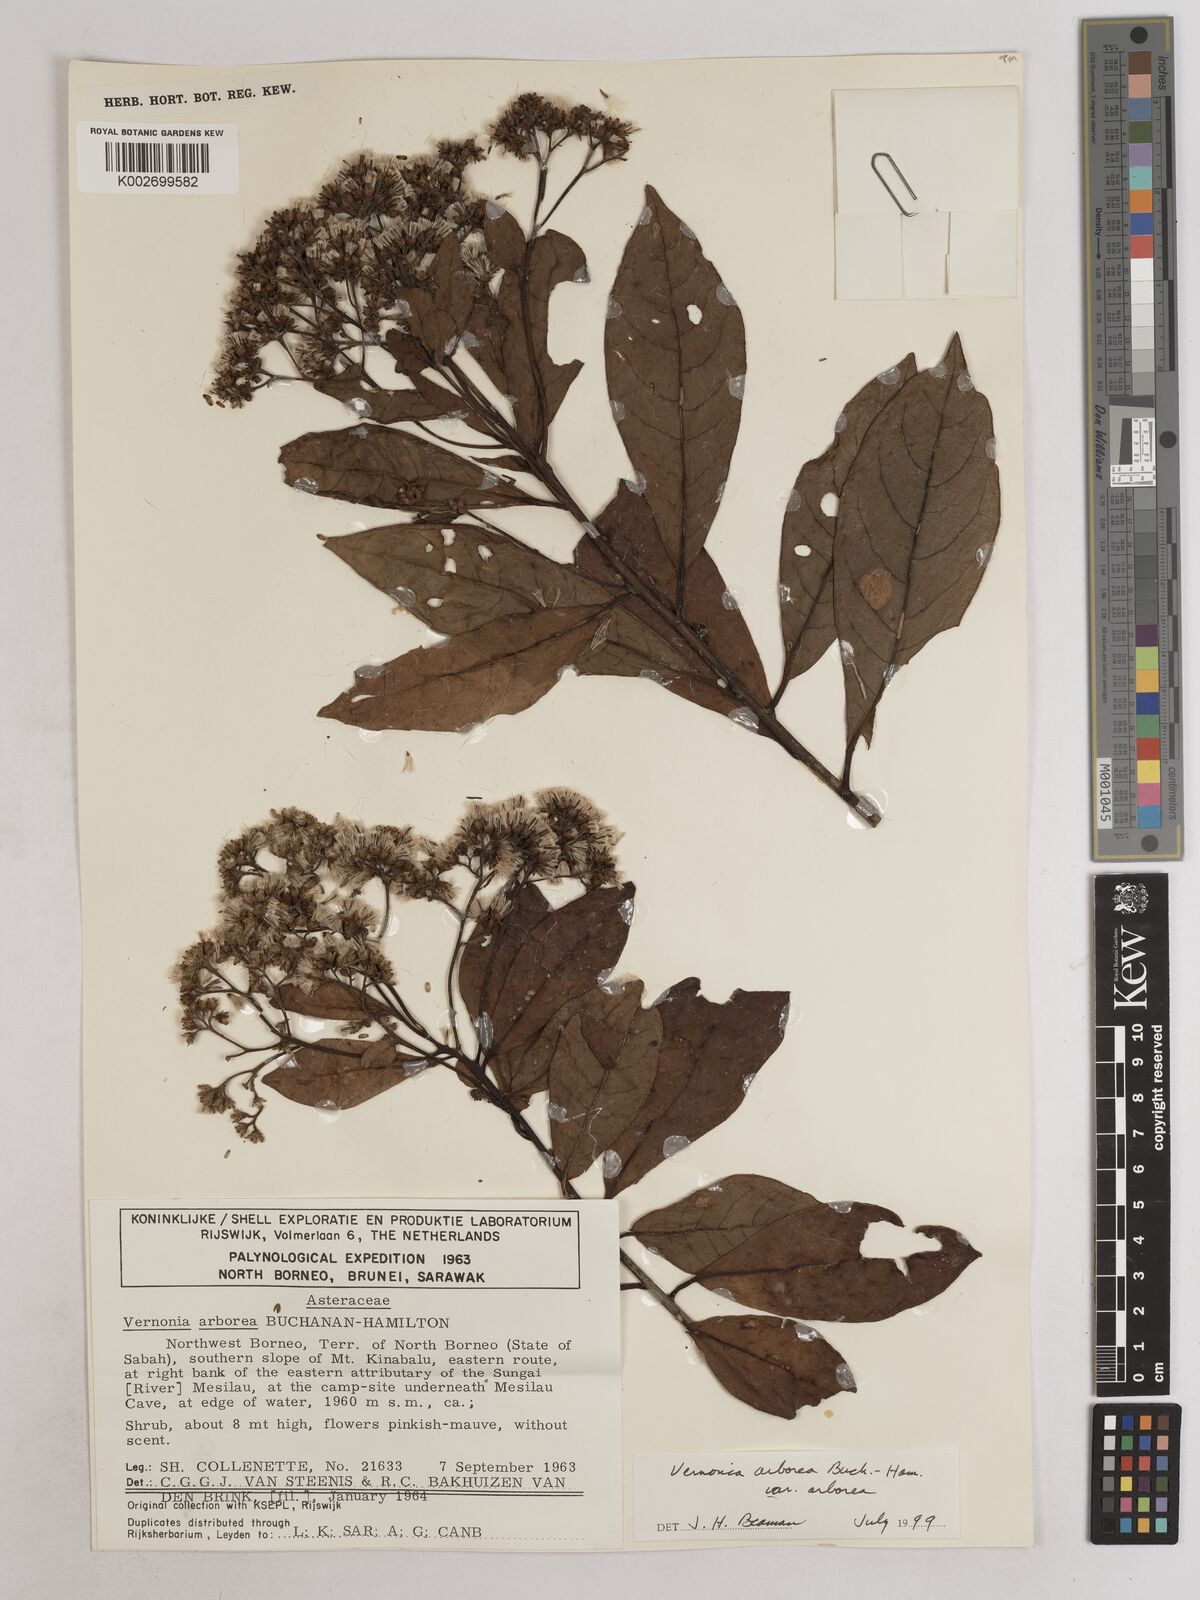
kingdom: Plantae
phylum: Tracheophyta
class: Magnoliopsida
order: Asterales
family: Asteraceae
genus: Strobocalyx
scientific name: Strobocalyx arborea
